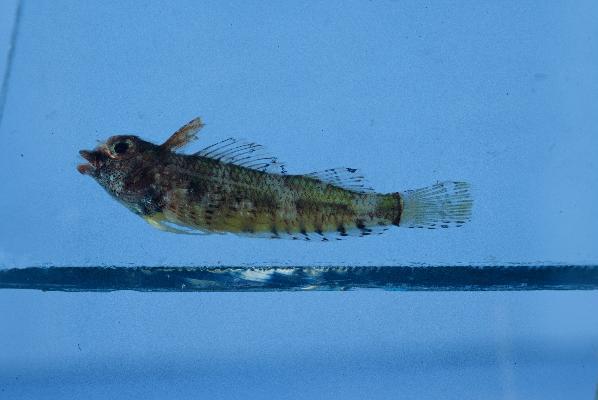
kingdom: Animalia
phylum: Chordata
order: Perciformes
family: Tripterygiidae
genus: Enneapterygius
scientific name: Enneapterygius ventermaculus
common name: Blotched triplefin
